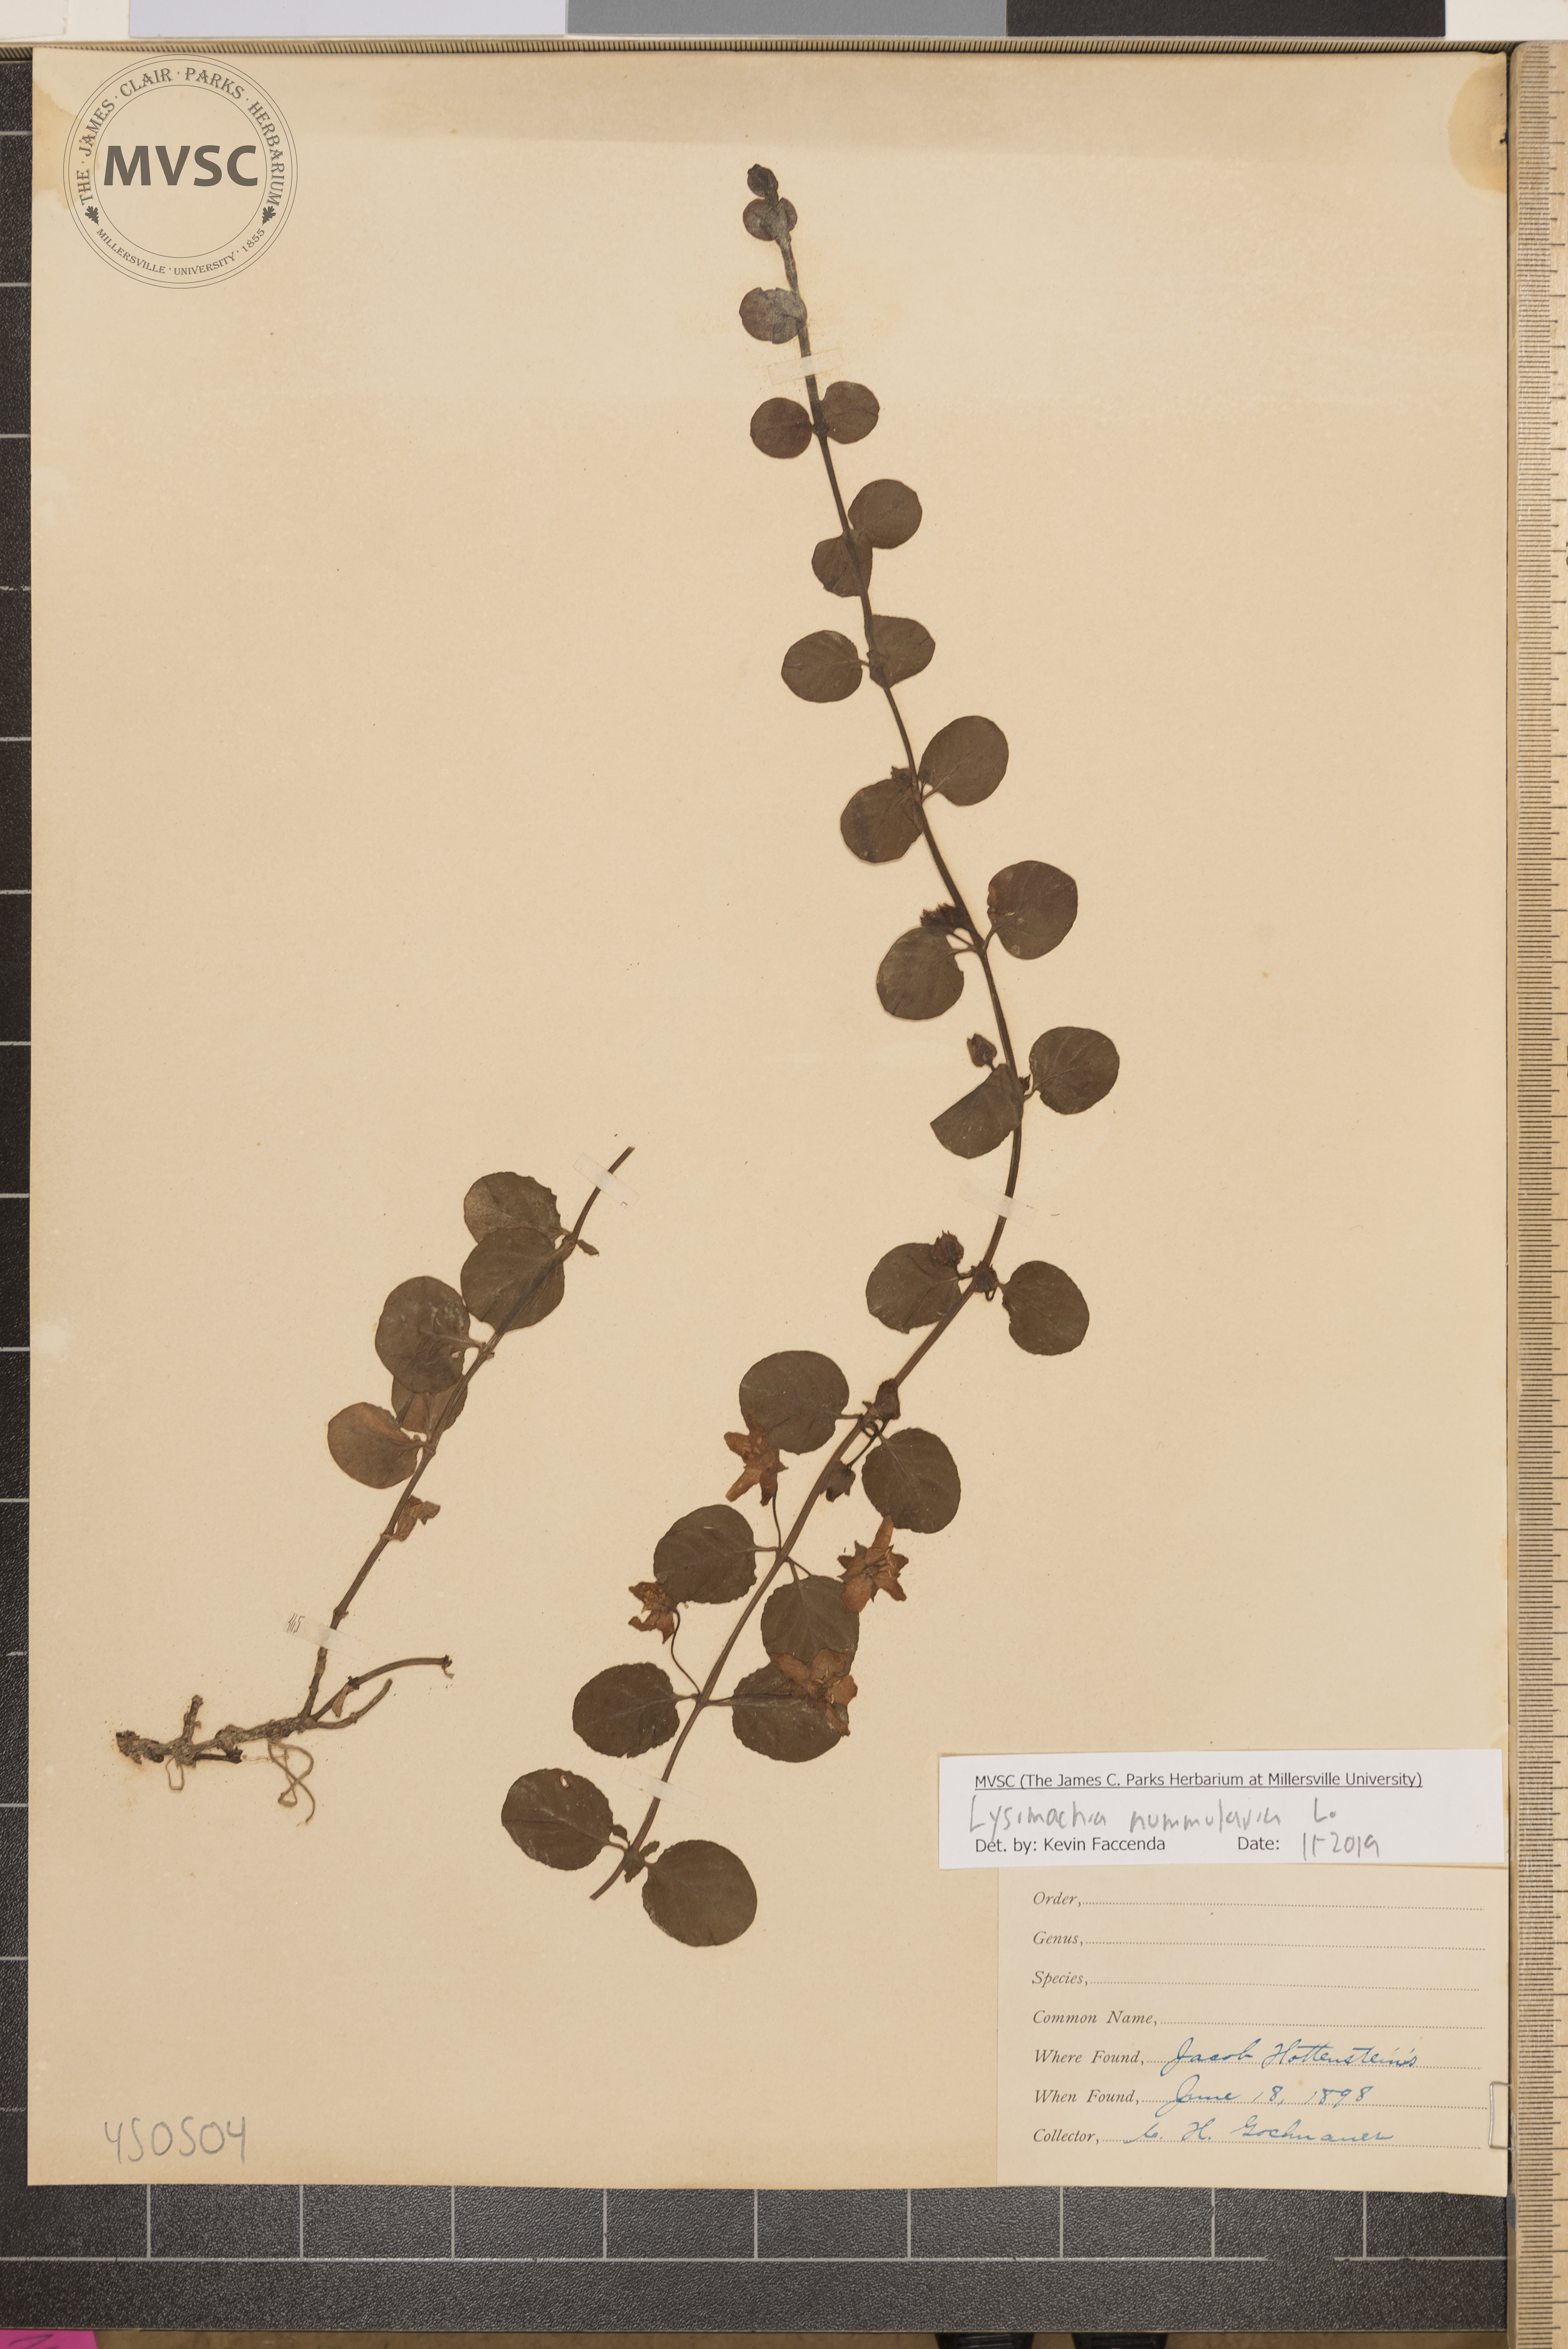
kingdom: Plantae
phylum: Tracheophyta
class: Magnoliopsida
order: Ericales
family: Primulaceae
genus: Lysimachia
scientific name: Lysimachia nummularia
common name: Moneywort
